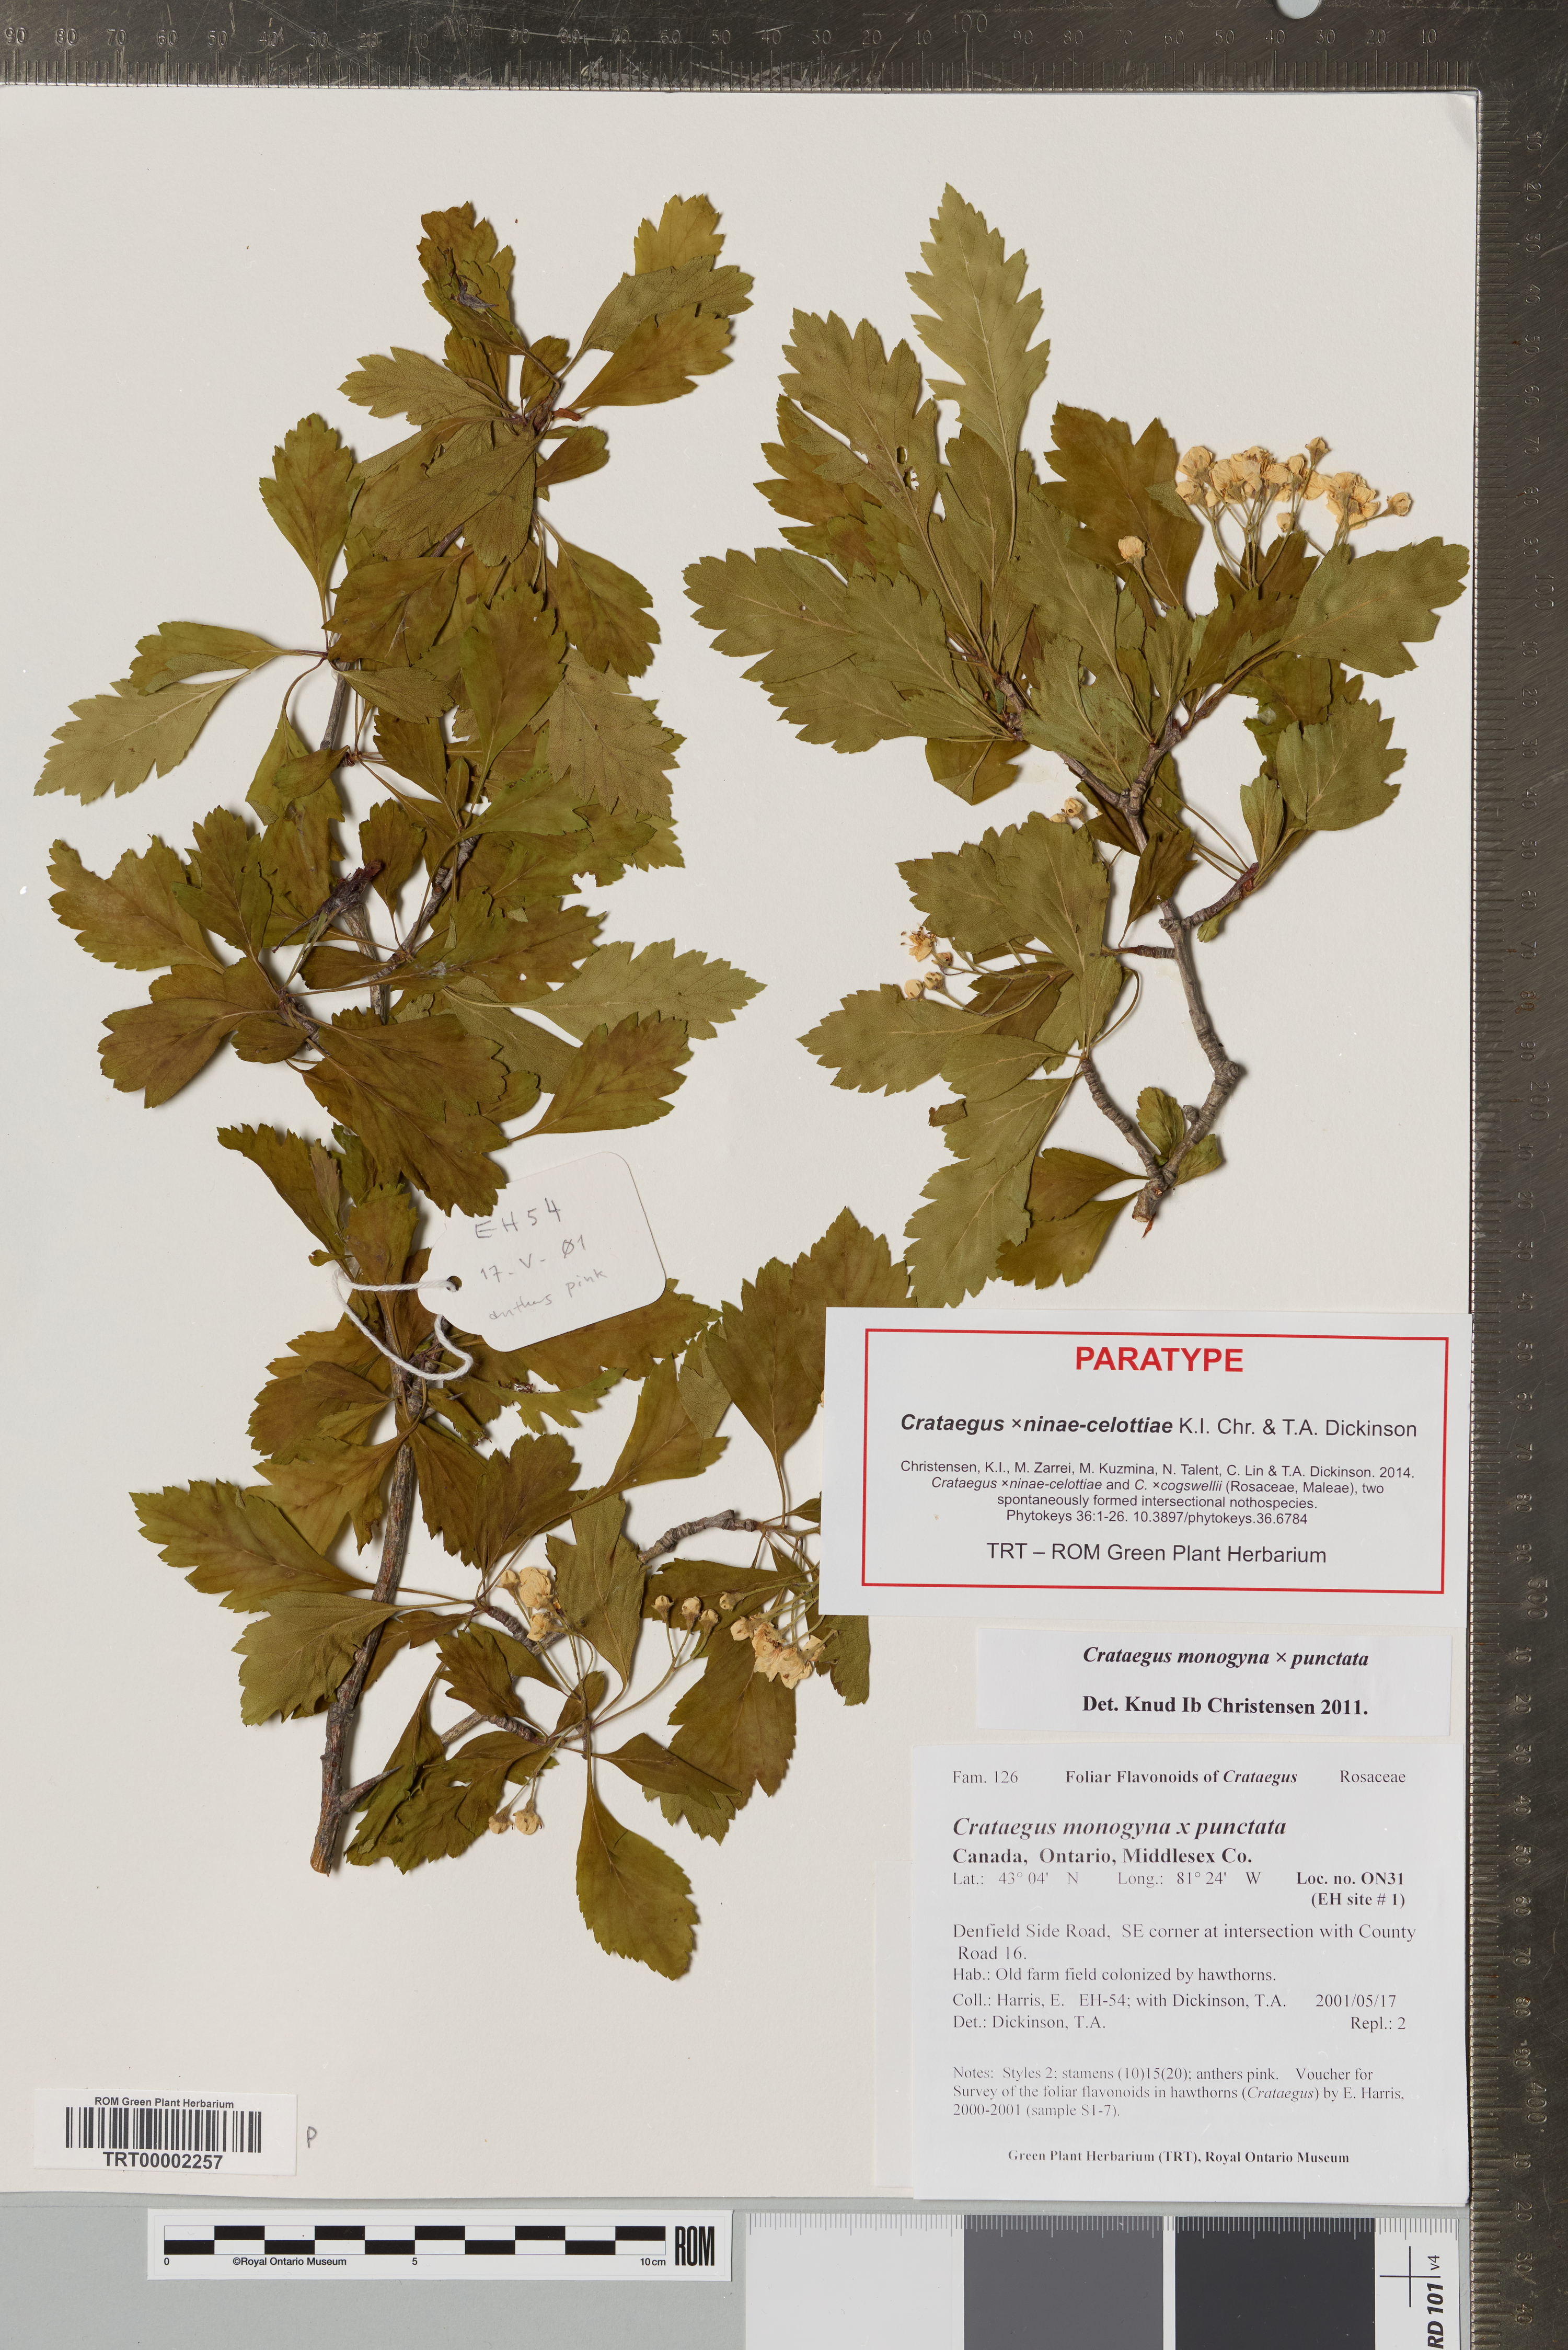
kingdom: Plantae
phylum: Tracheophyta
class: Magnoliopsida
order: Rosales
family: Rosaceae
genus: Crataegus
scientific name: Crataegus
